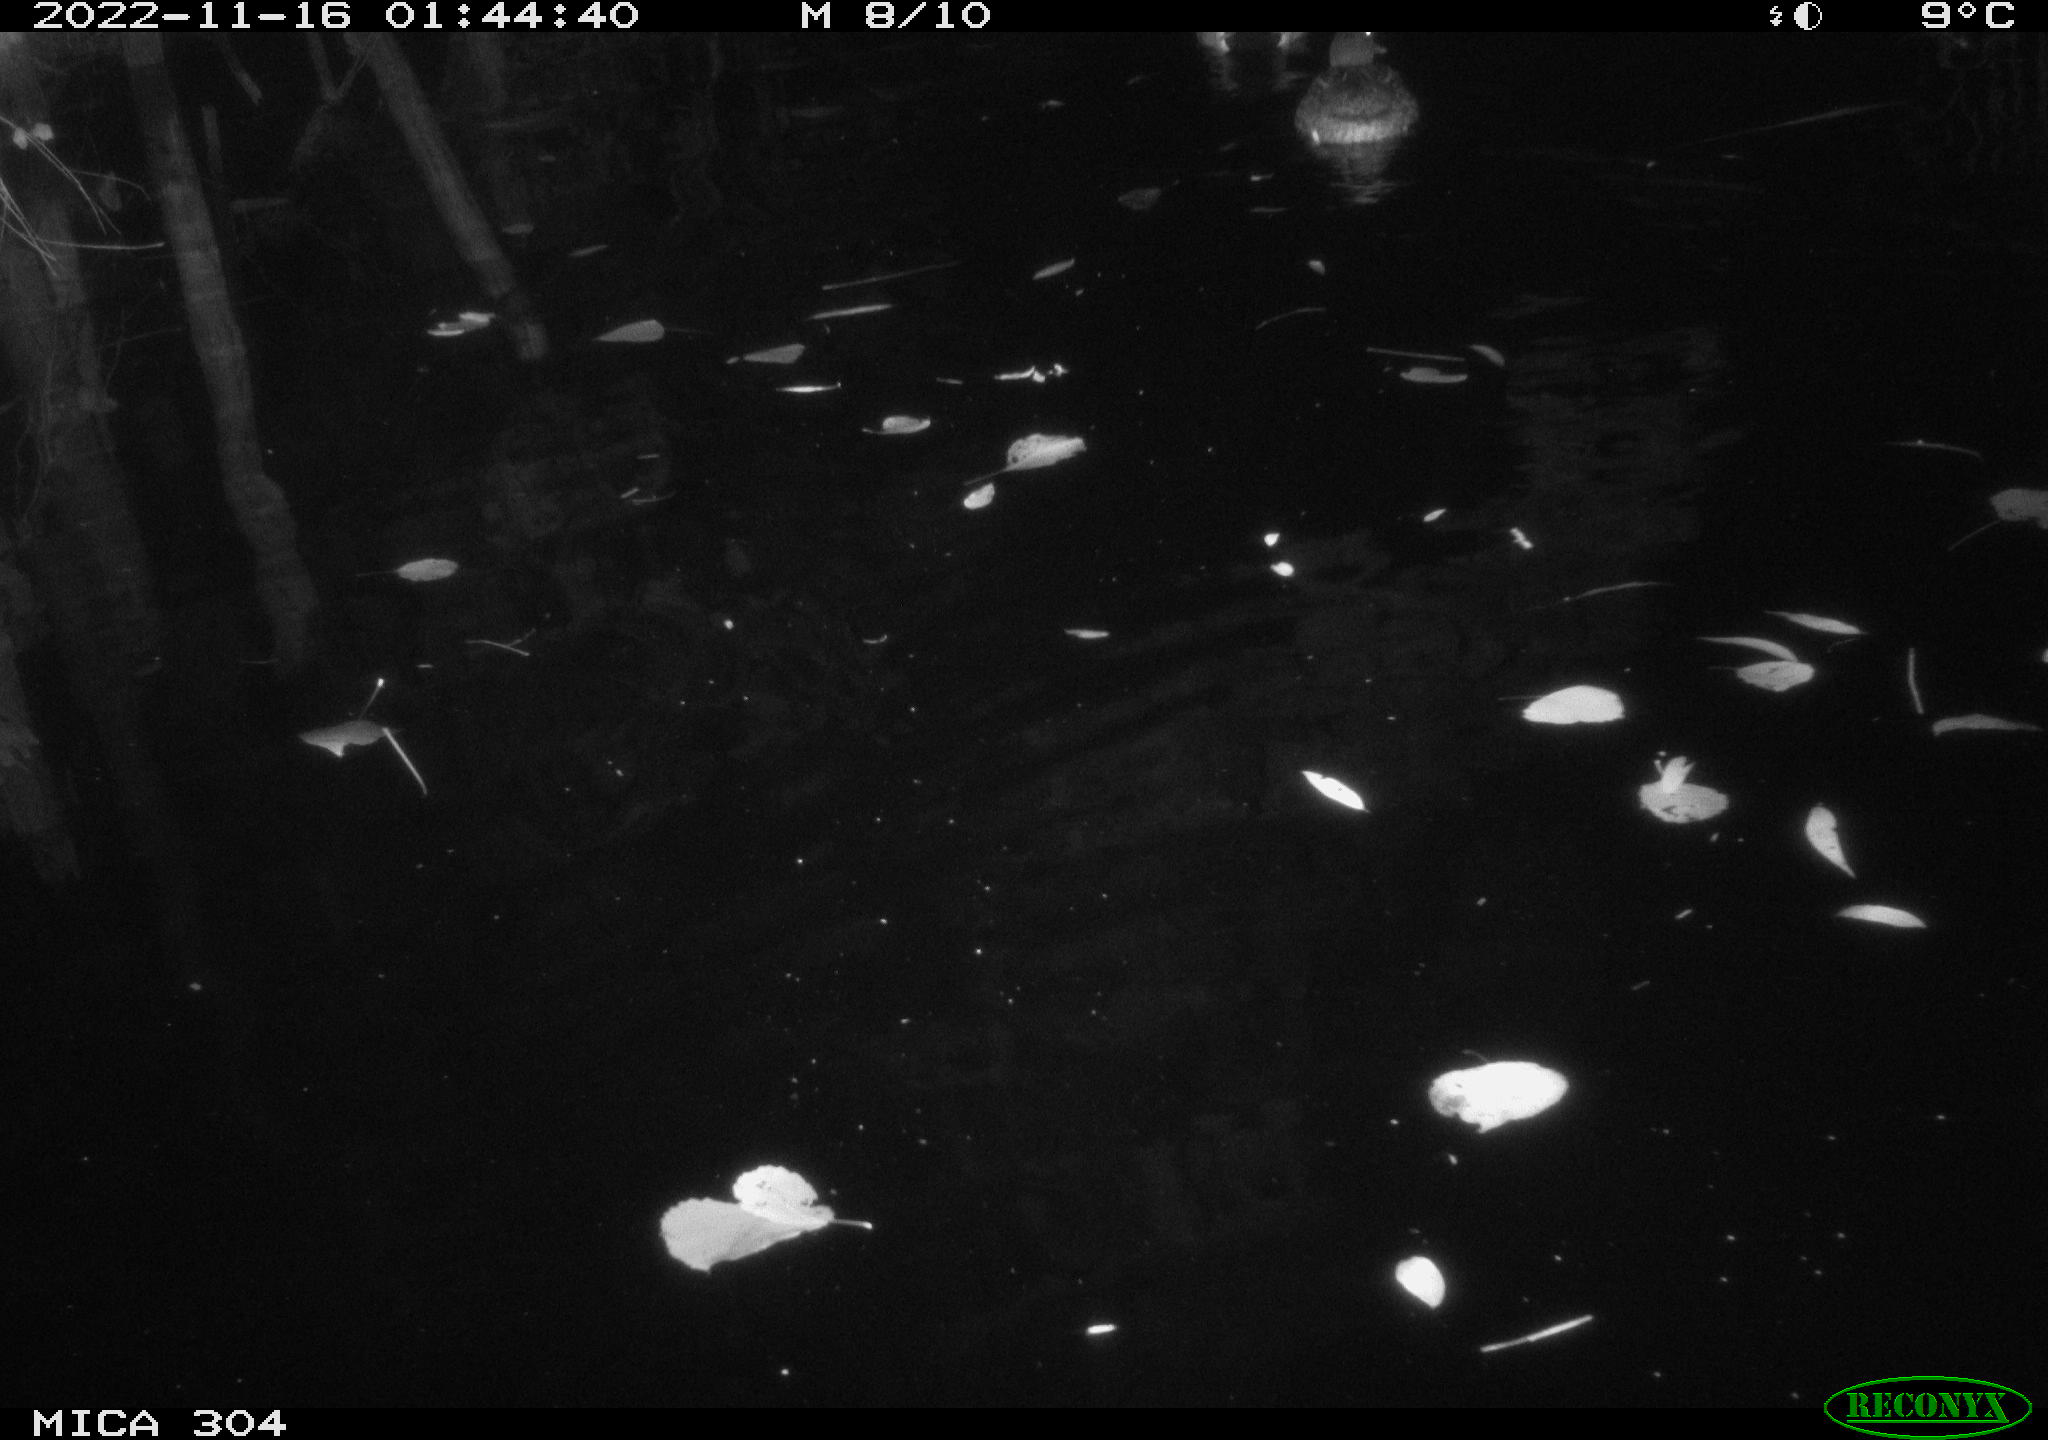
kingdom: Animalia
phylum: Chordata
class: Aves
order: Anseriformes
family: Anatidae
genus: Anas
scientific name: Anas platyrhynchos
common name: Mallard
